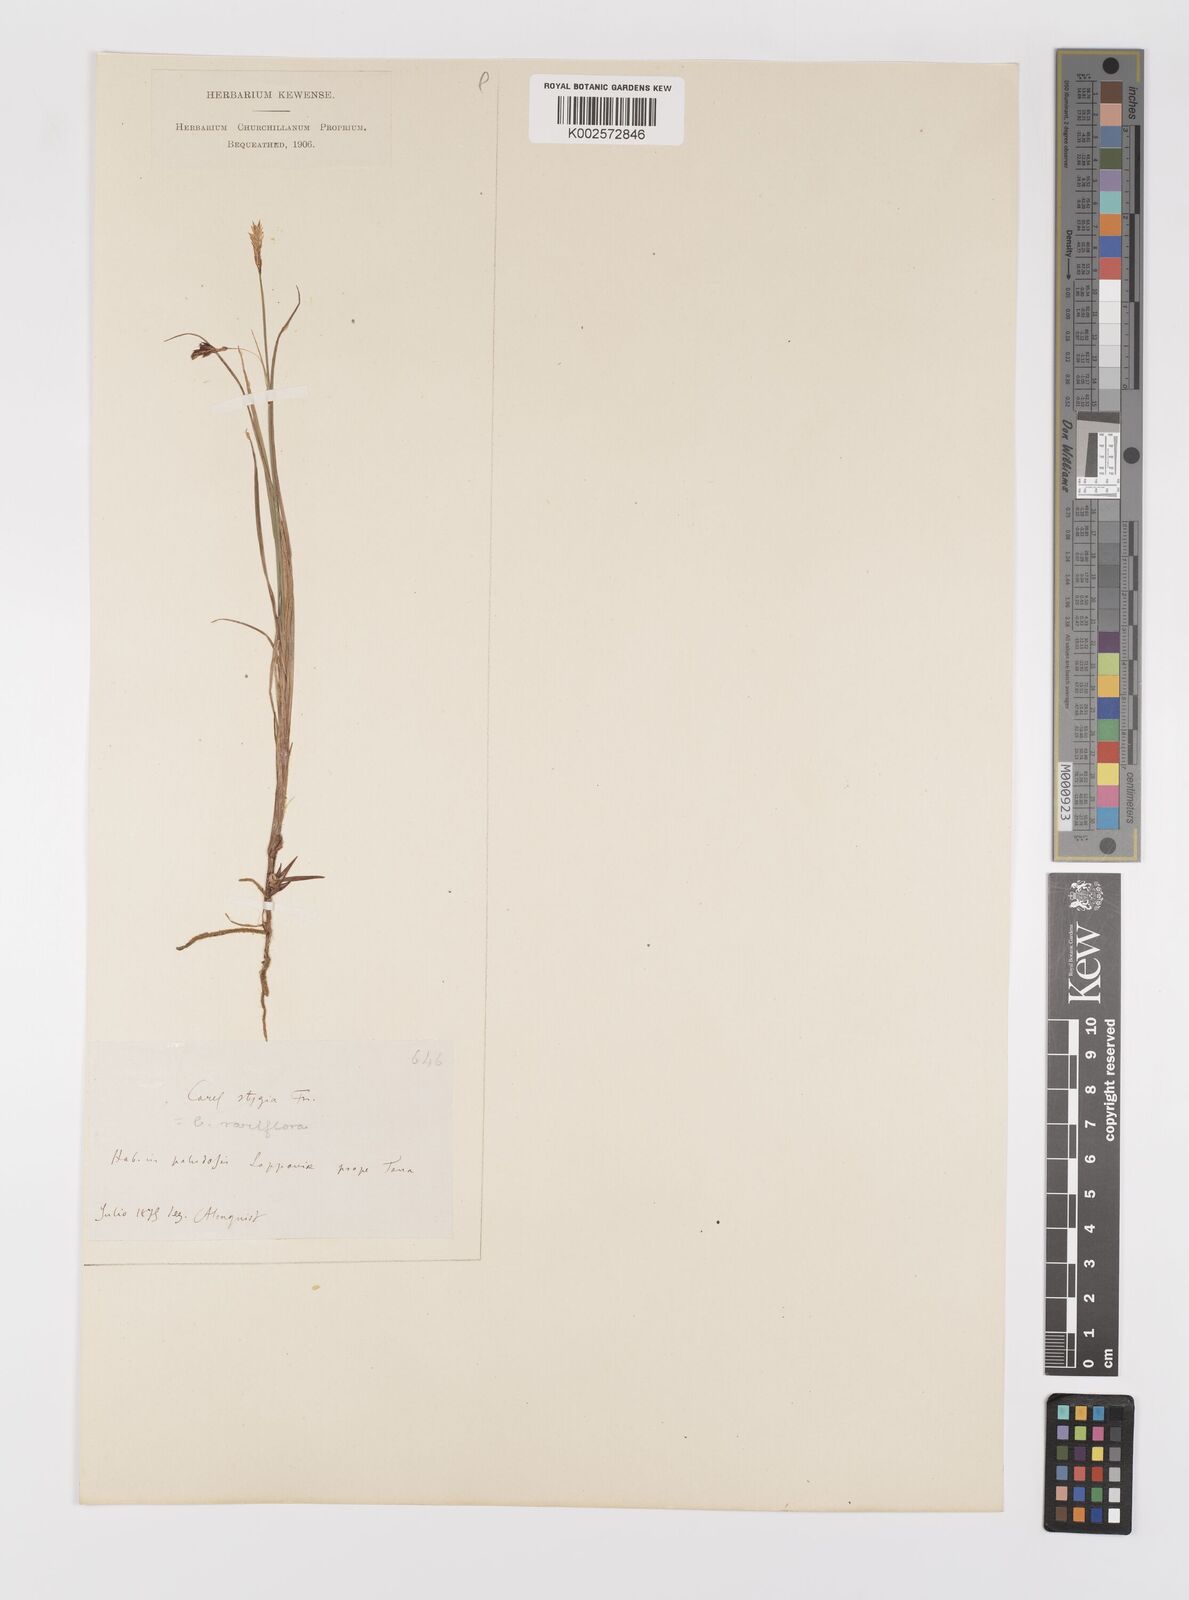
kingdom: Plantae
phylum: Tracheophyta
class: Liliopsida
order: Poales
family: Cyperaceae
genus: Carex
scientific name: Carex rariflora
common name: Loose-flowered alpine sedge
